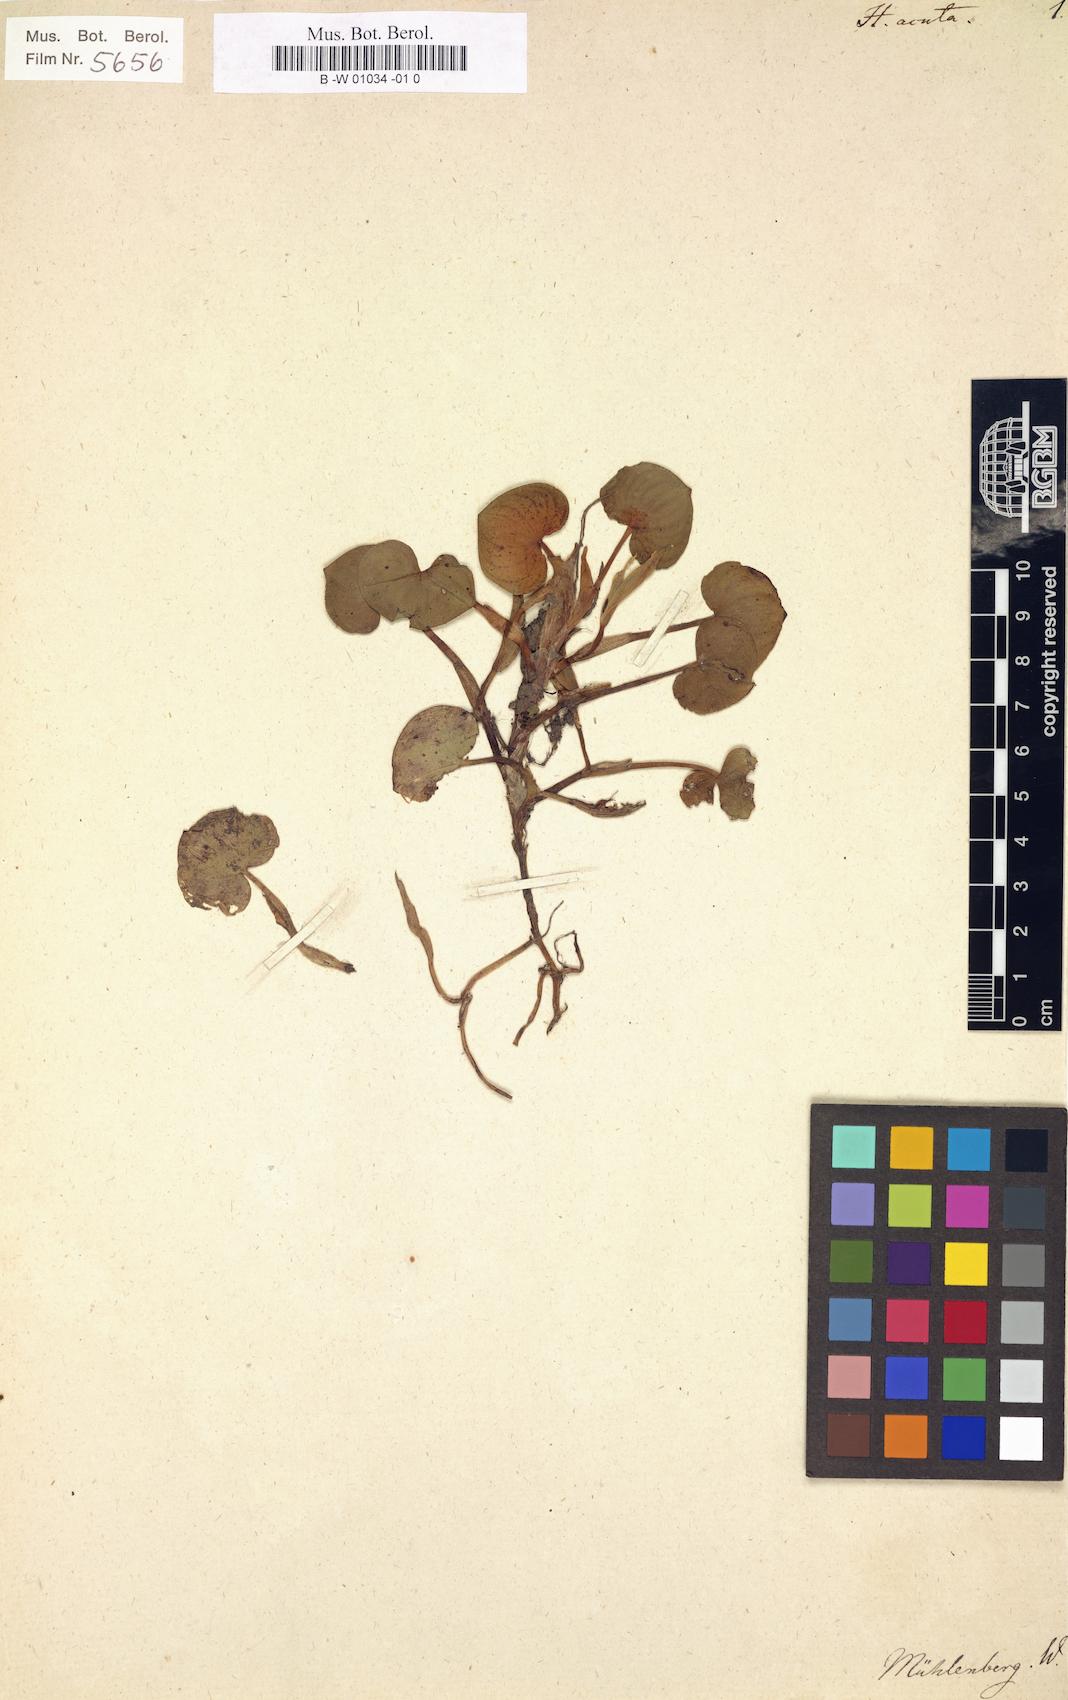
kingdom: Plantae
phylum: Tracheophyta
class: Liliopsida
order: Commelinales
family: Pontederiaceae
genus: Heteranthera
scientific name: Heteranthera reniformis
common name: Kidneyleaf mudplantain
